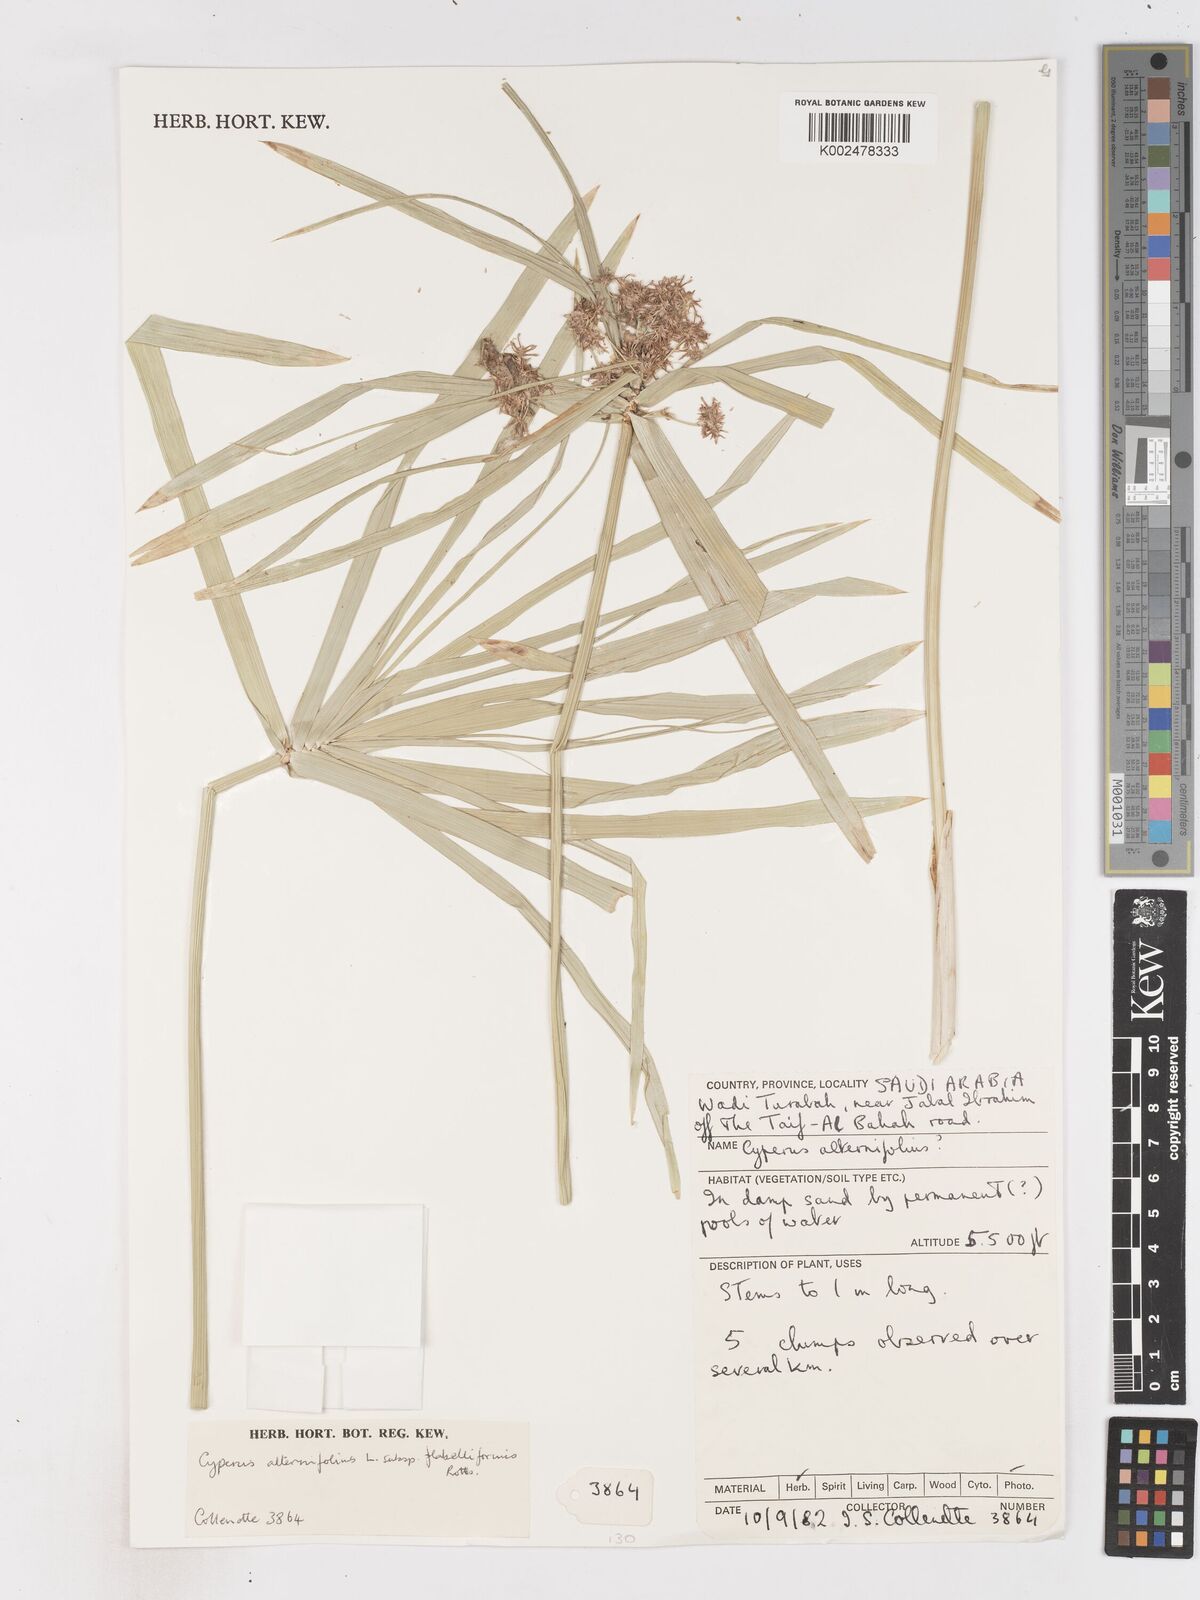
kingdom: Plantae
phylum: Tracheophyta
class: Liliopsida
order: Poales
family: Cyperaceae
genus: Cyperus
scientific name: Cyperus alternifolius
